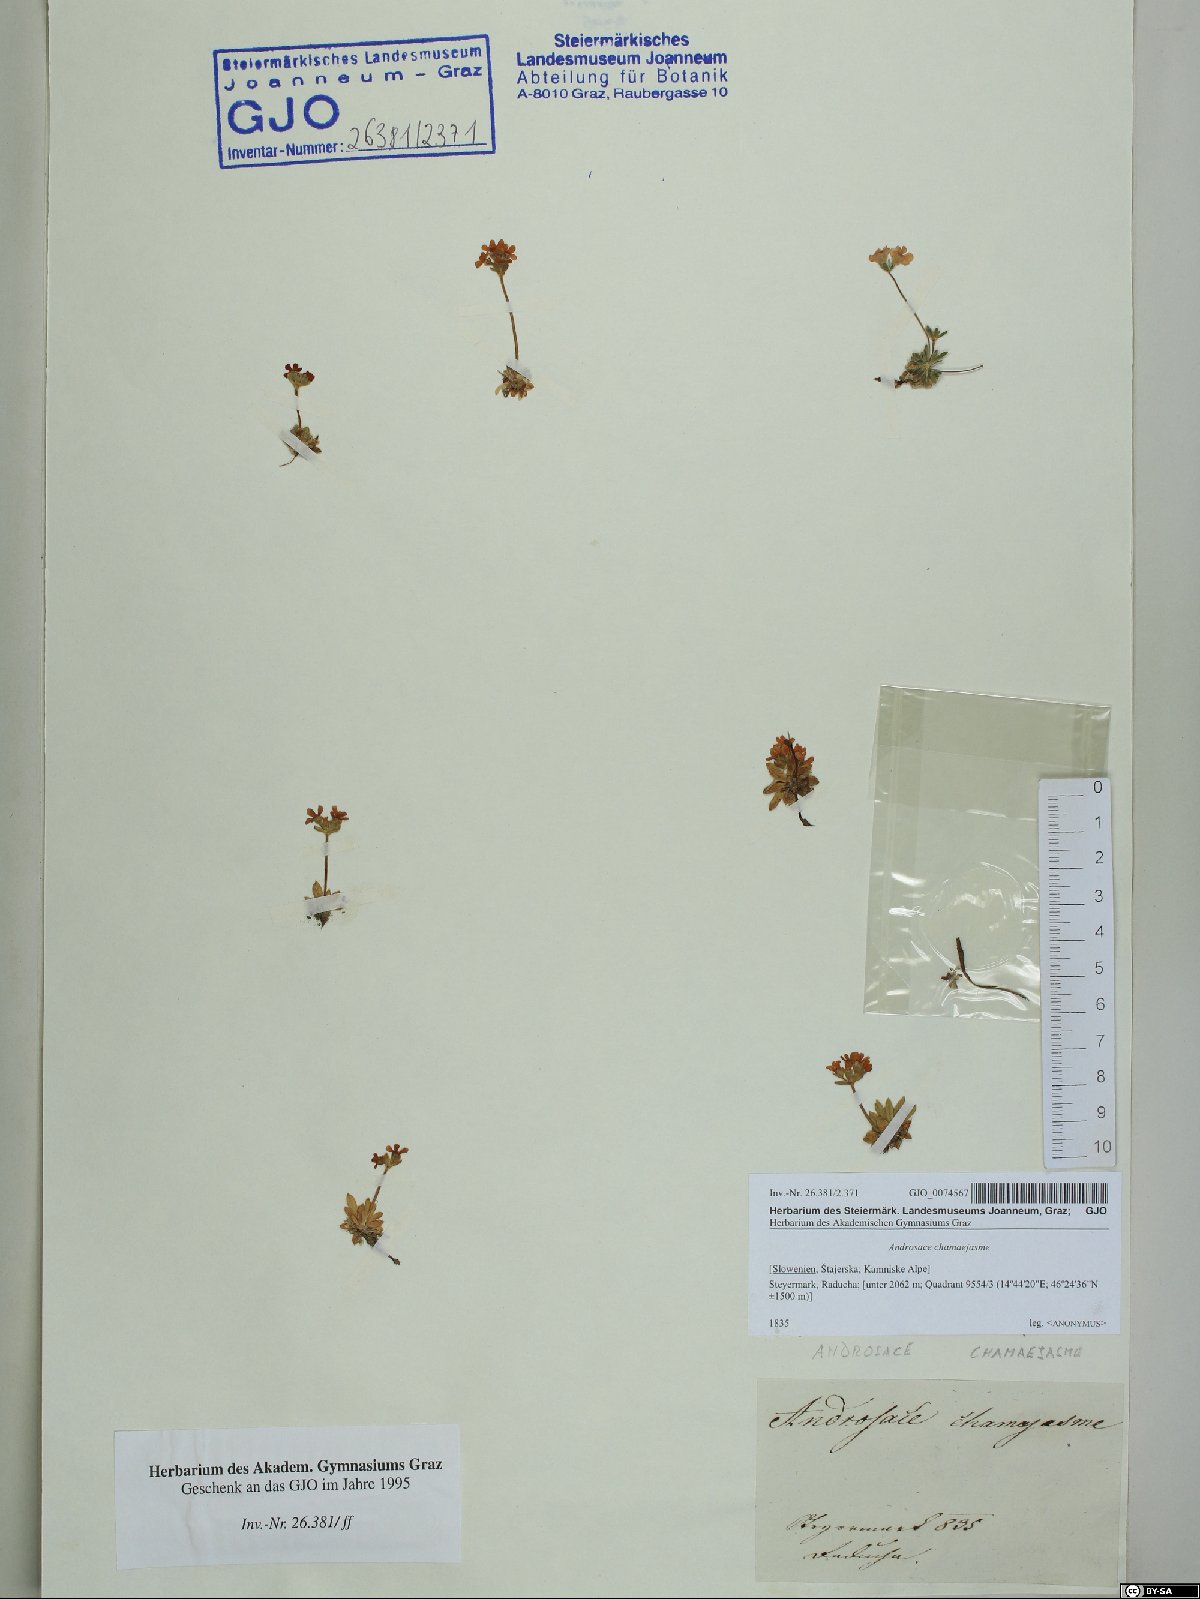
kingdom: Plantae
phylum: Tracheophyta
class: Magnoliopsida
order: Ericales
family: Primulaceae
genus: Androsace
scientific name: Androsace chamaejasme
